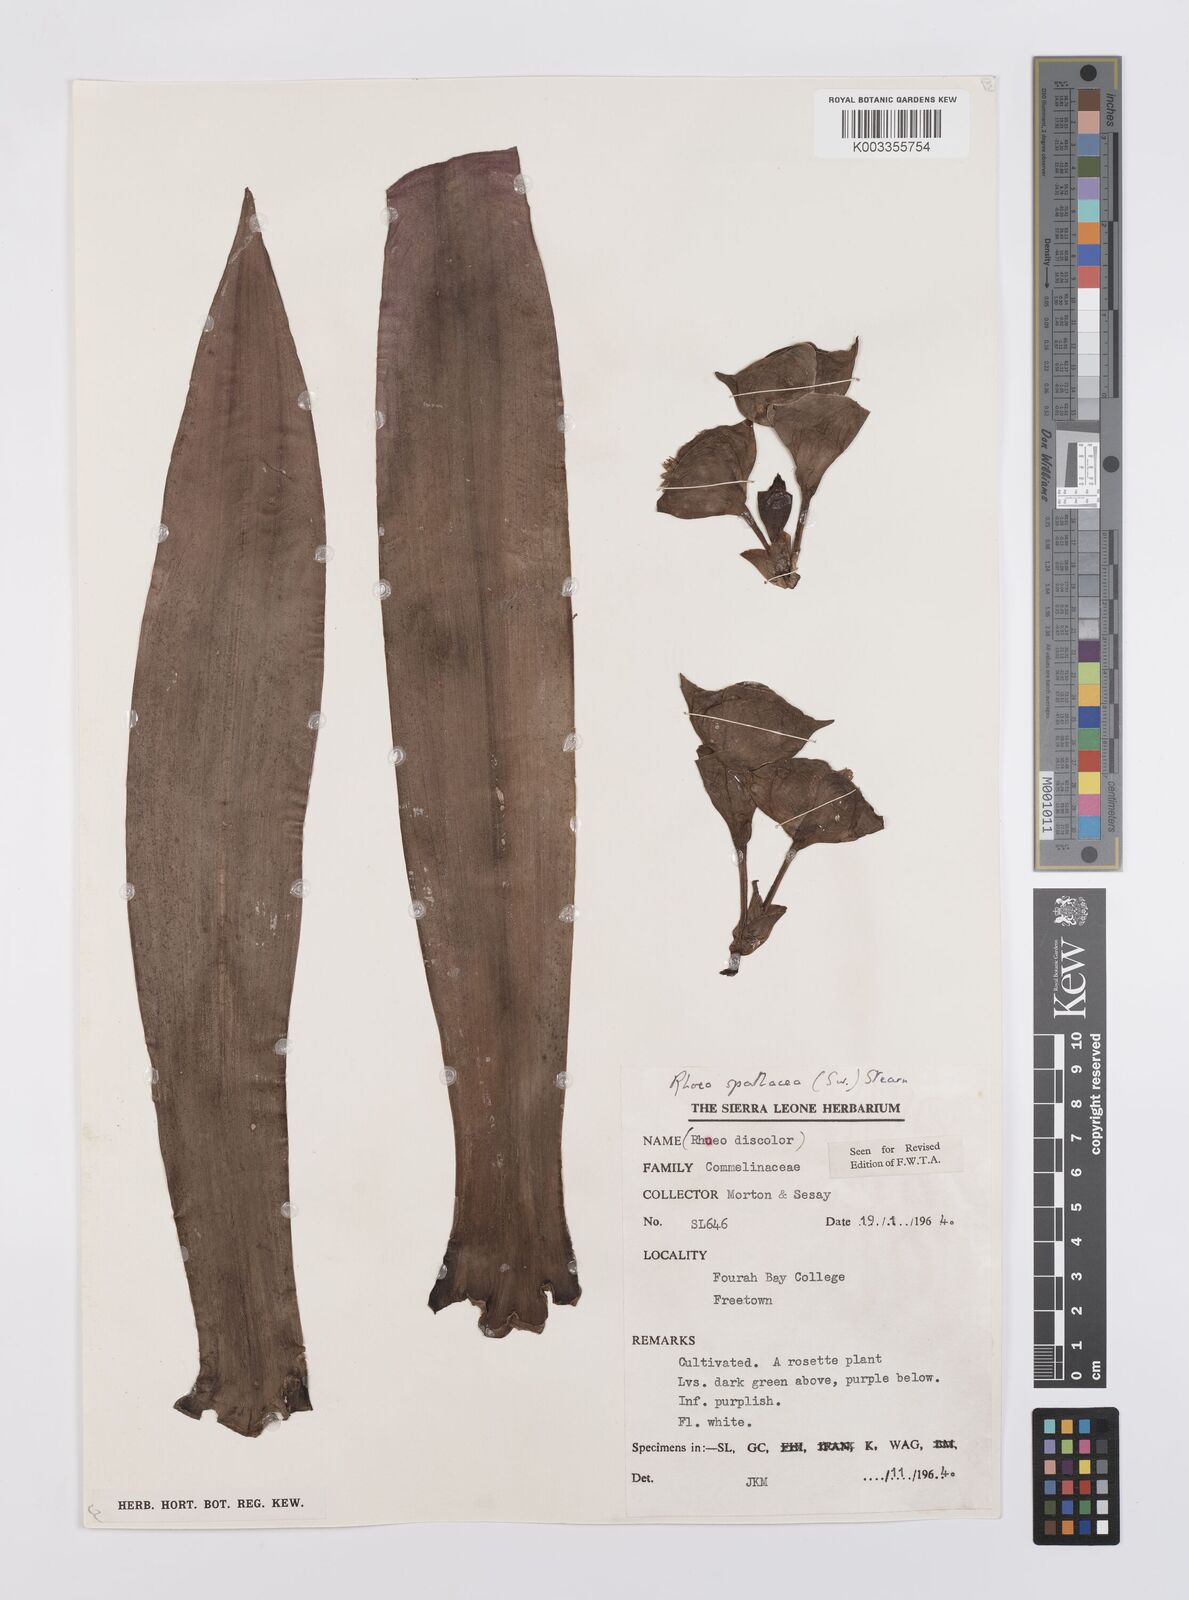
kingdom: Plantae
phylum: Tracheophyta
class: Liliopsida
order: Commelinales
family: Commelinaceae
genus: Tradescantia
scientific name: Tradescantia spathacea
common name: Boatlily
